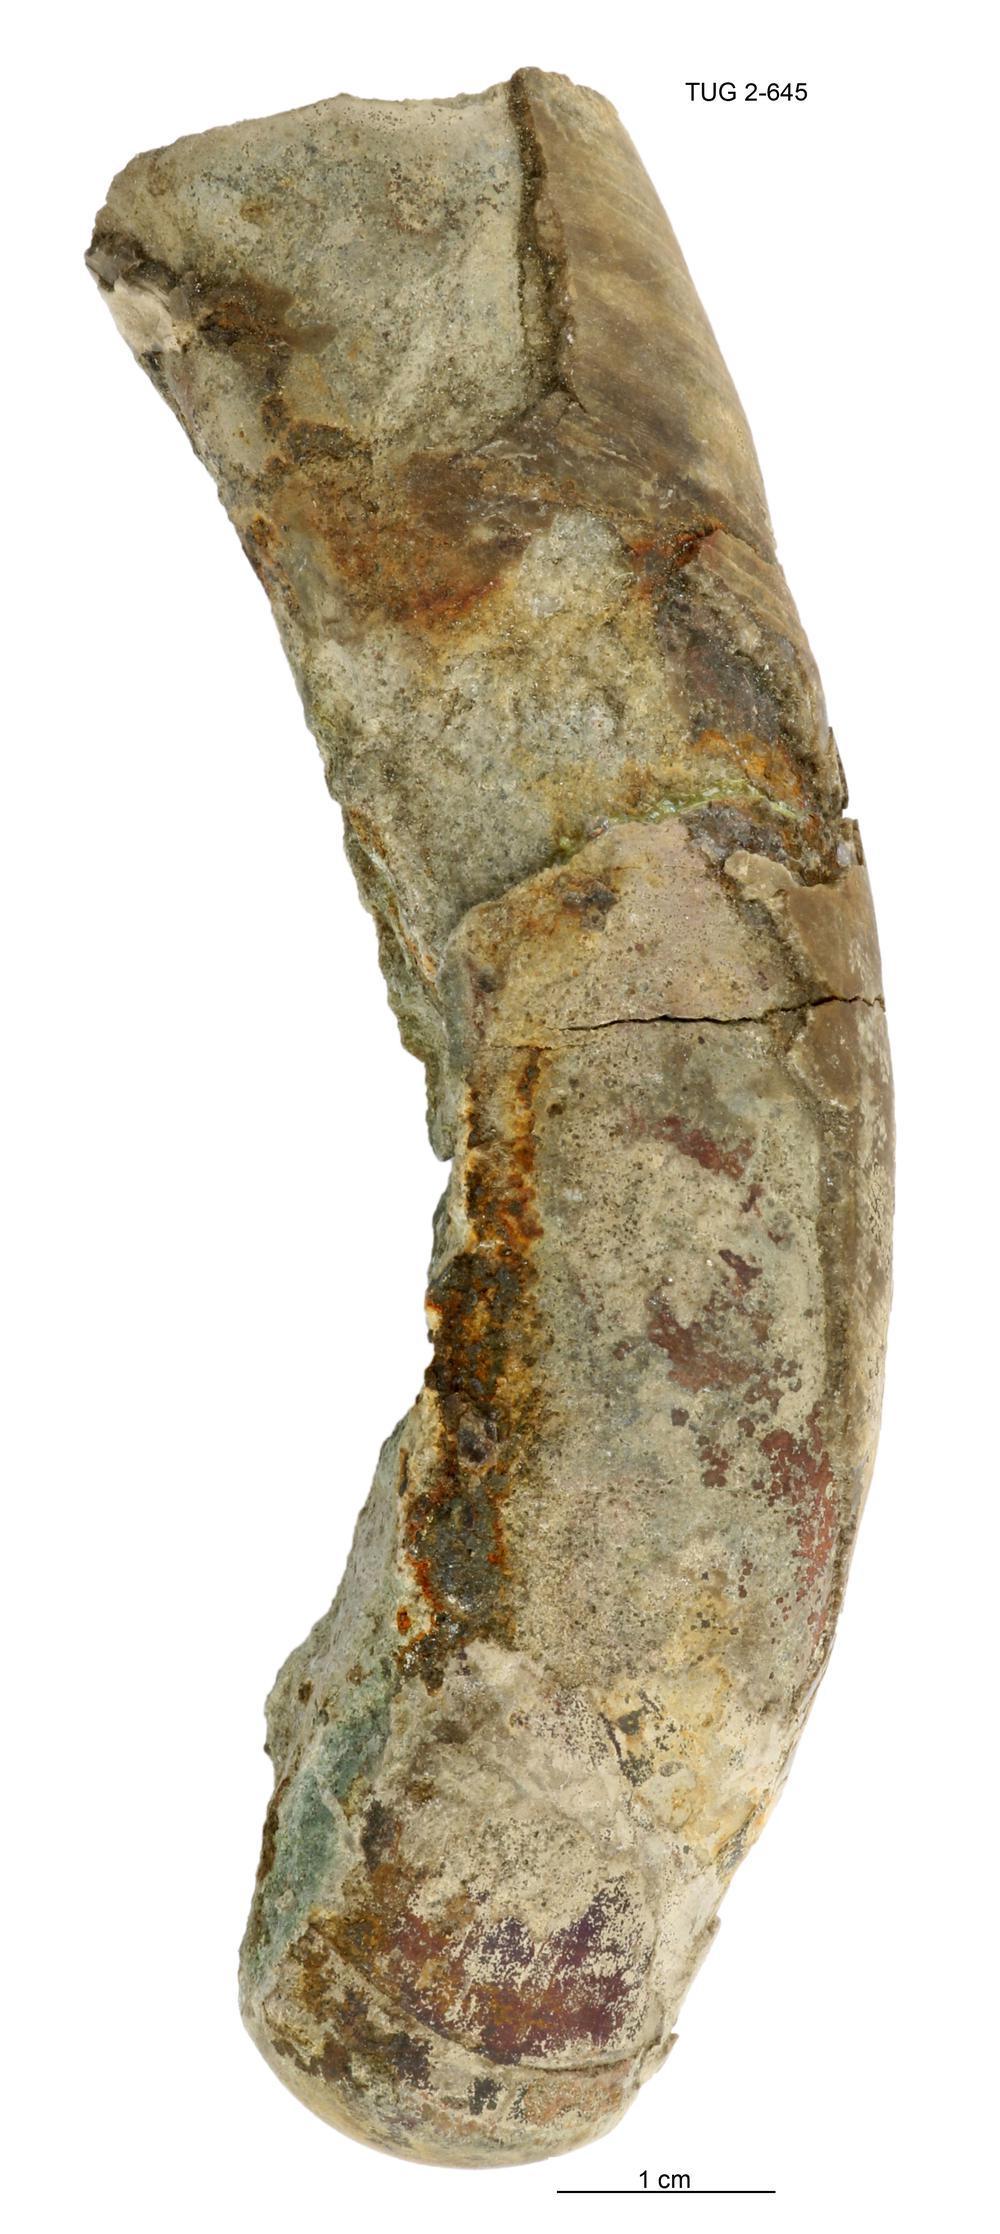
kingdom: Animalia
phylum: Mollusca
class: Cephalopoda
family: Tarphyceratidae
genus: Planctoceras
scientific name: Planctoceras
